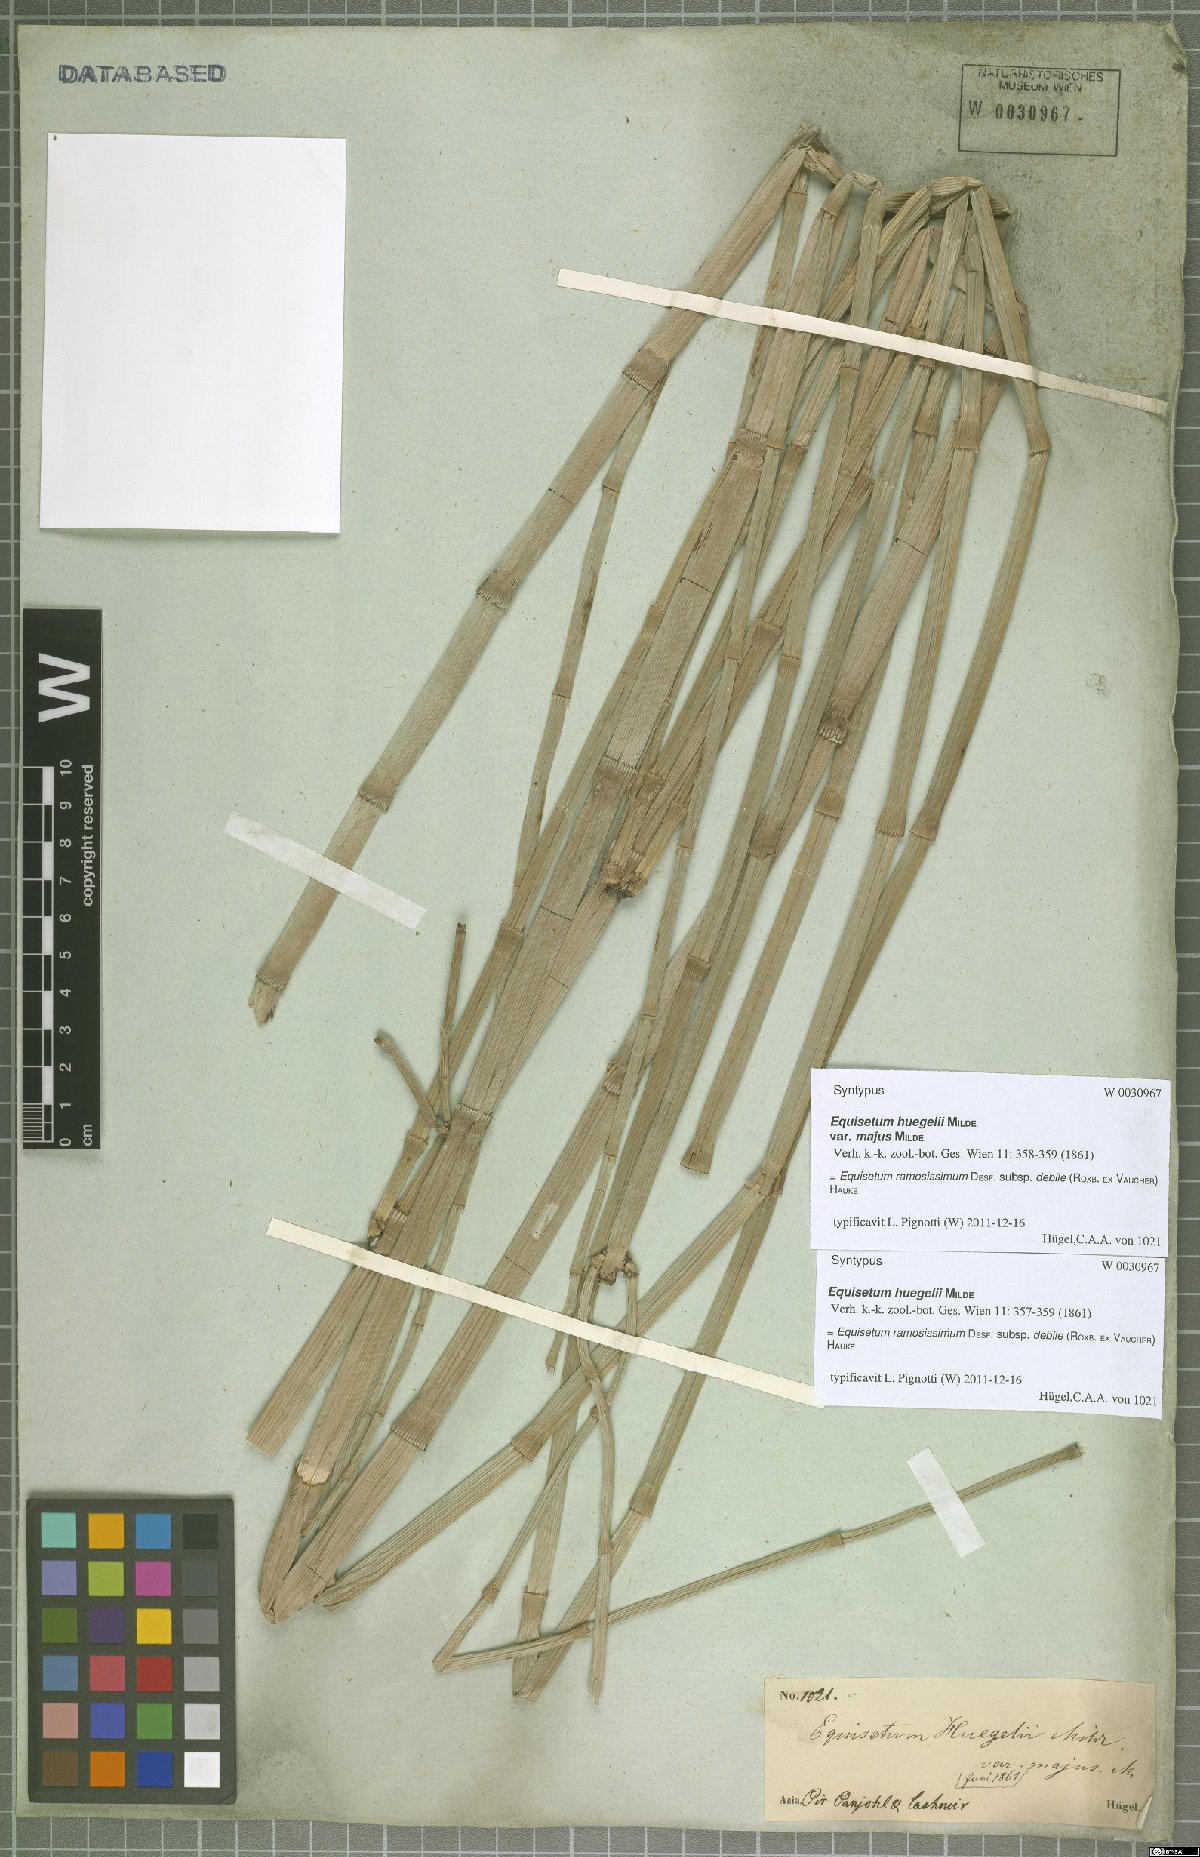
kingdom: Plantae
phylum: Tracheophyta
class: Polypodiopsida
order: Equisetales
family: Equisetaceae
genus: Equisetum
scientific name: Equisetum ramosissimum
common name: Branched horsetail
